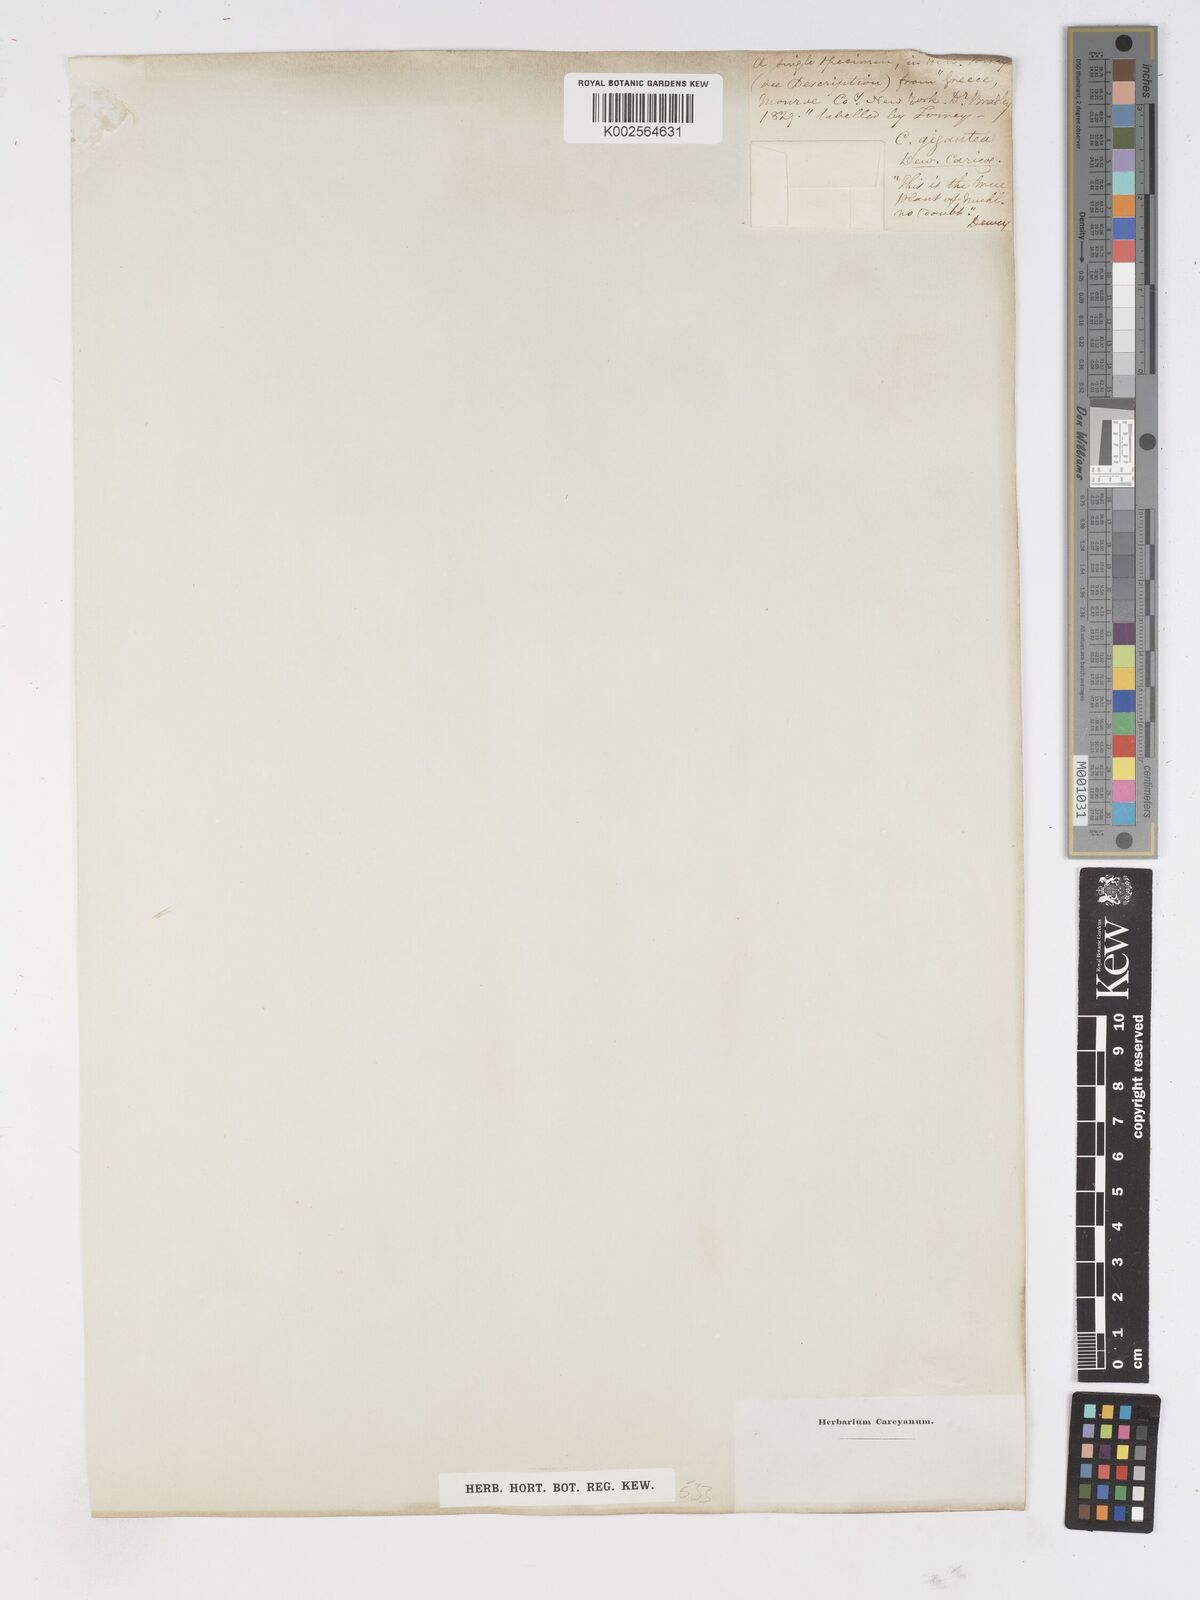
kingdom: Plantae
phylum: Tracheophyta
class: Liliopsida
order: Poales
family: Cyperaceae
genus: Carex
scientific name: Carex gigantea
